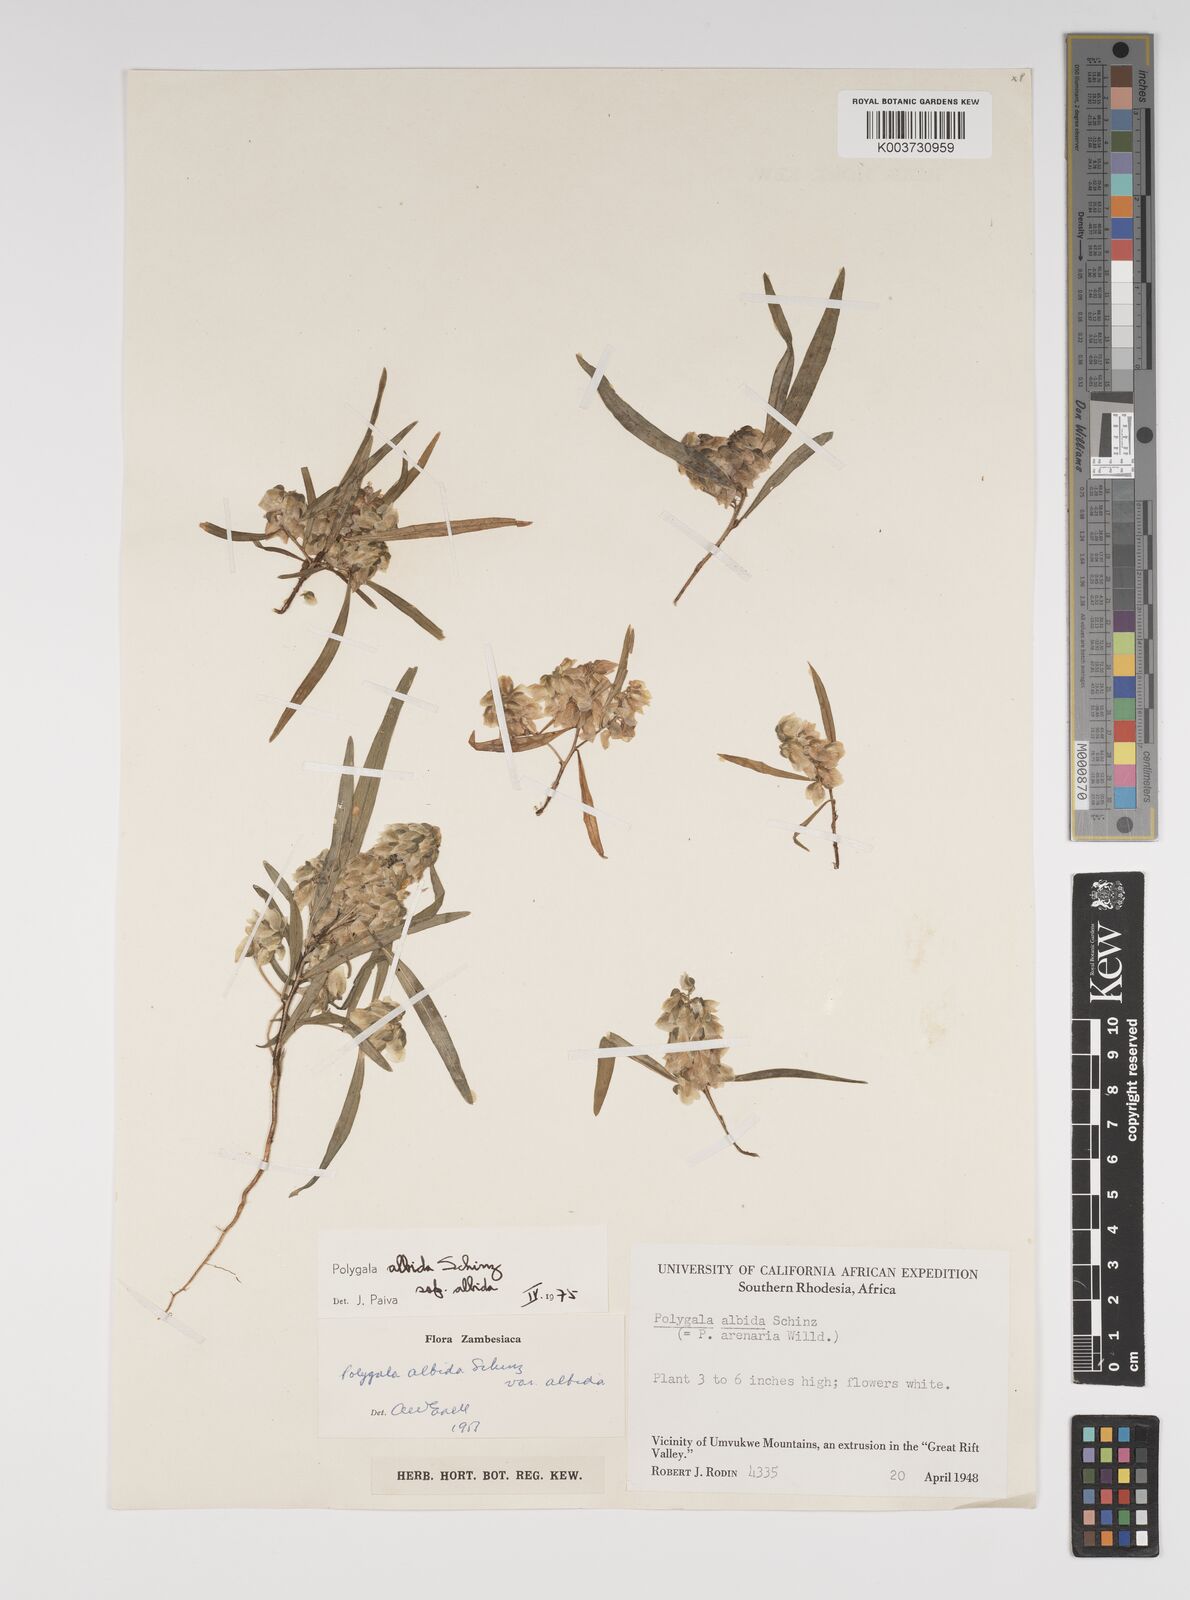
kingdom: Plantae
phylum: Tracheophyta
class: Magnoliopsida
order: Fabales
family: Polygalaceae
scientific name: Polygalaceae
